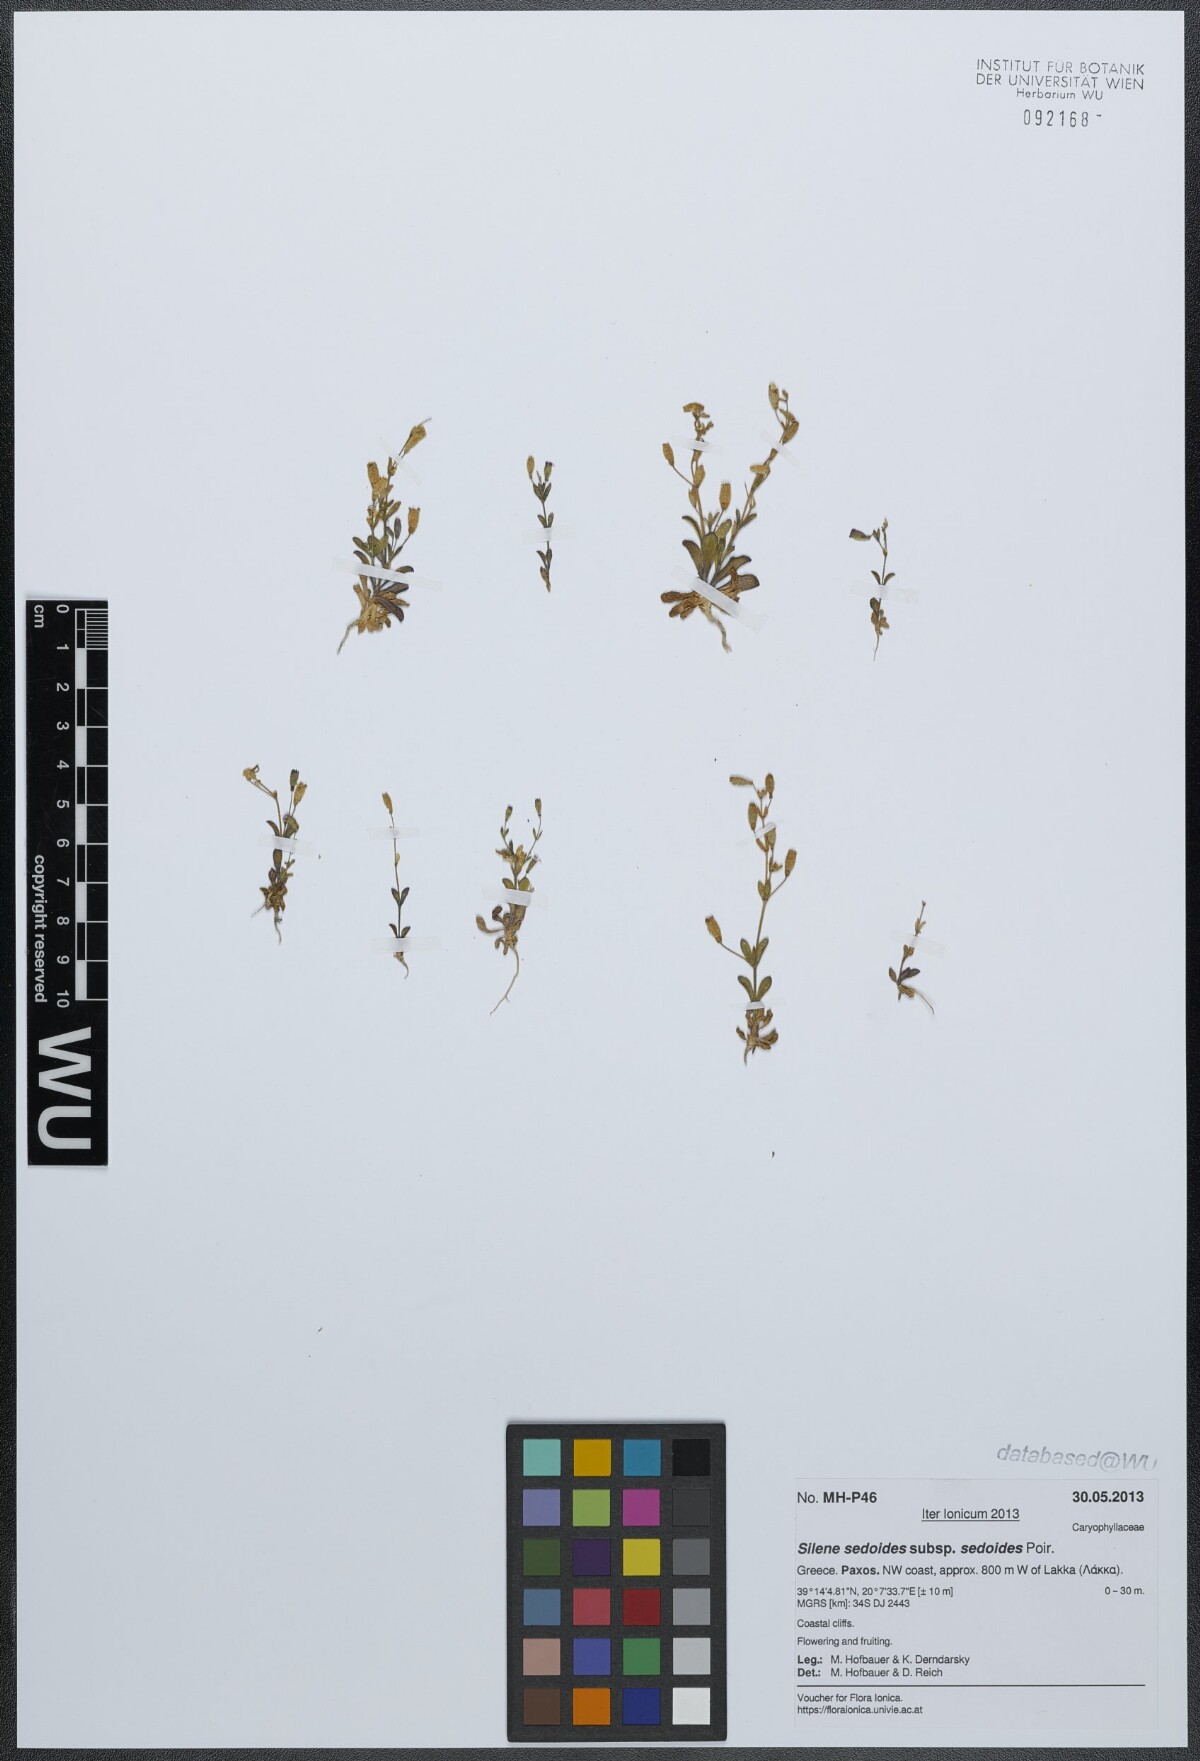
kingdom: Plantae
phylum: Tracheophyta
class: Magnoliopsida
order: Caryophyllales
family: Caryophyllaceae
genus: Silene
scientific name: Silene sedoides
